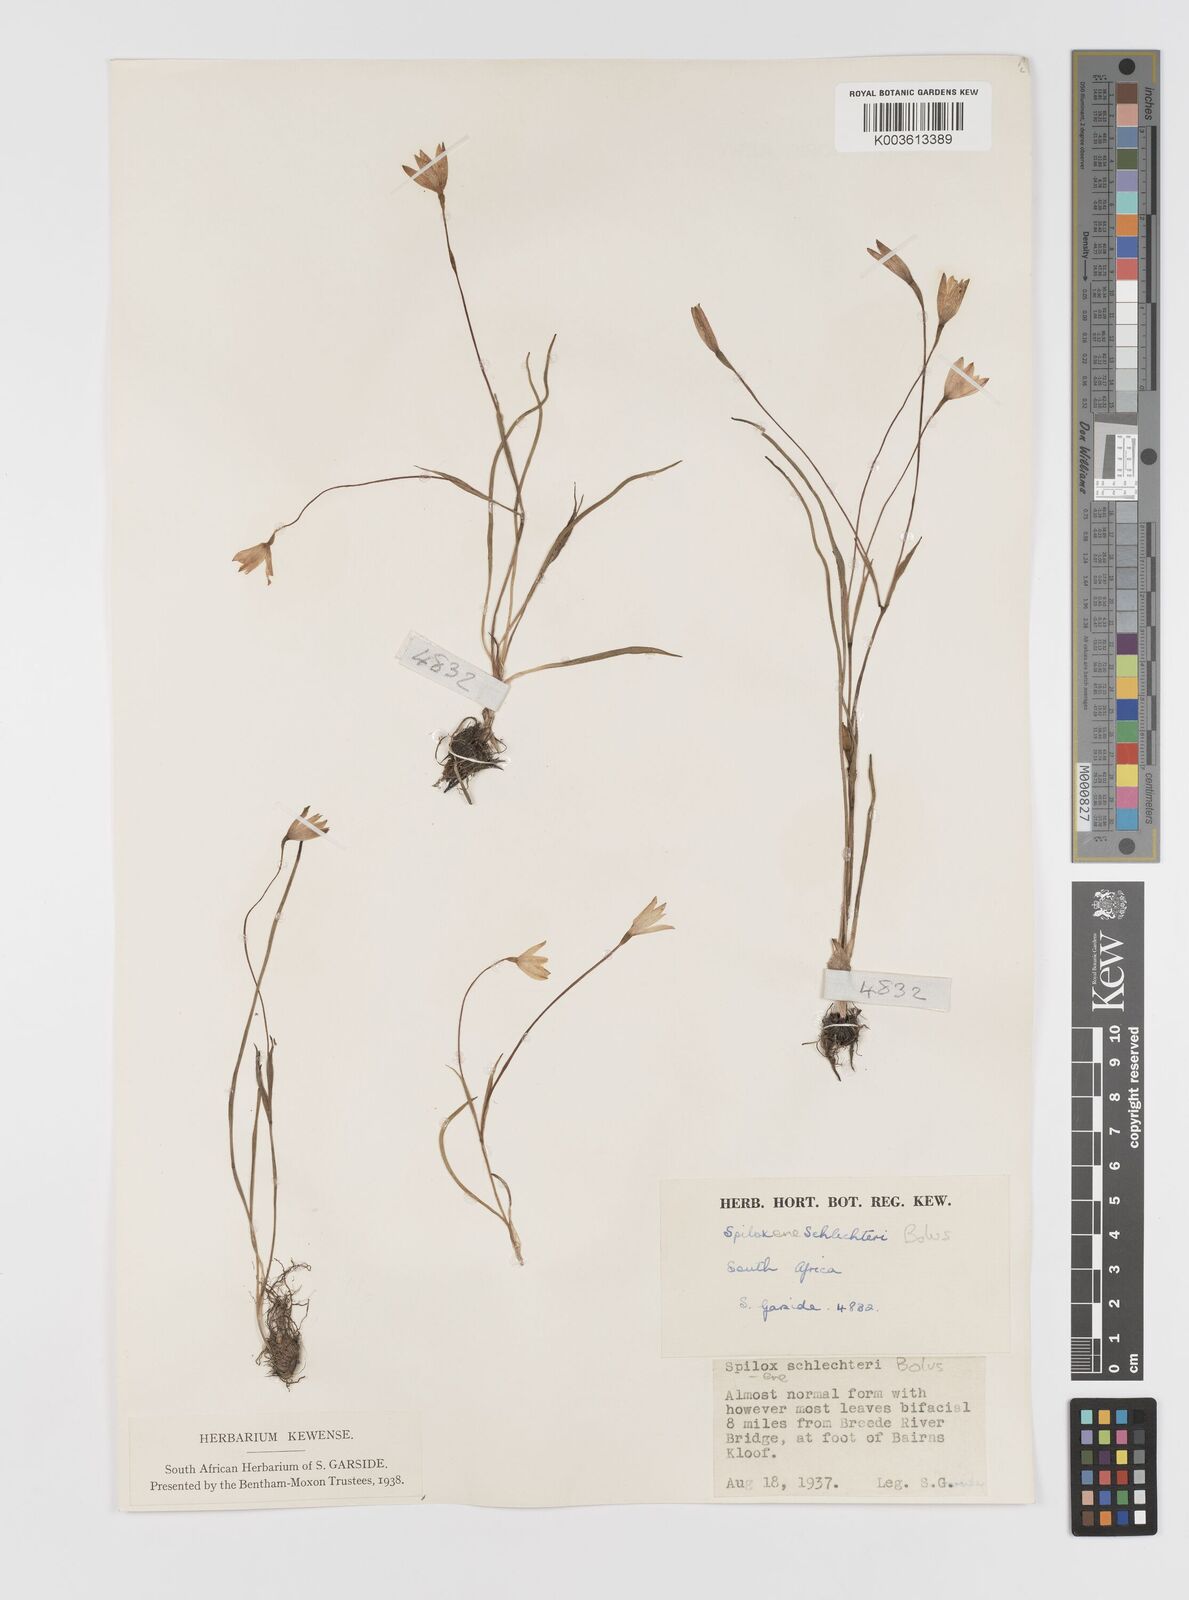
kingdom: Plantae
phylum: Tracheophyta
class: Liliopsida
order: Asparagales
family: Hypoxidaceae
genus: Pauridia
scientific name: Pauridia affinis
